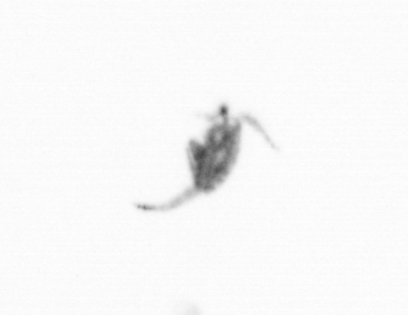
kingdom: Animalia
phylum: Arthropoda
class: Copepoda
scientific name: Copepoda
